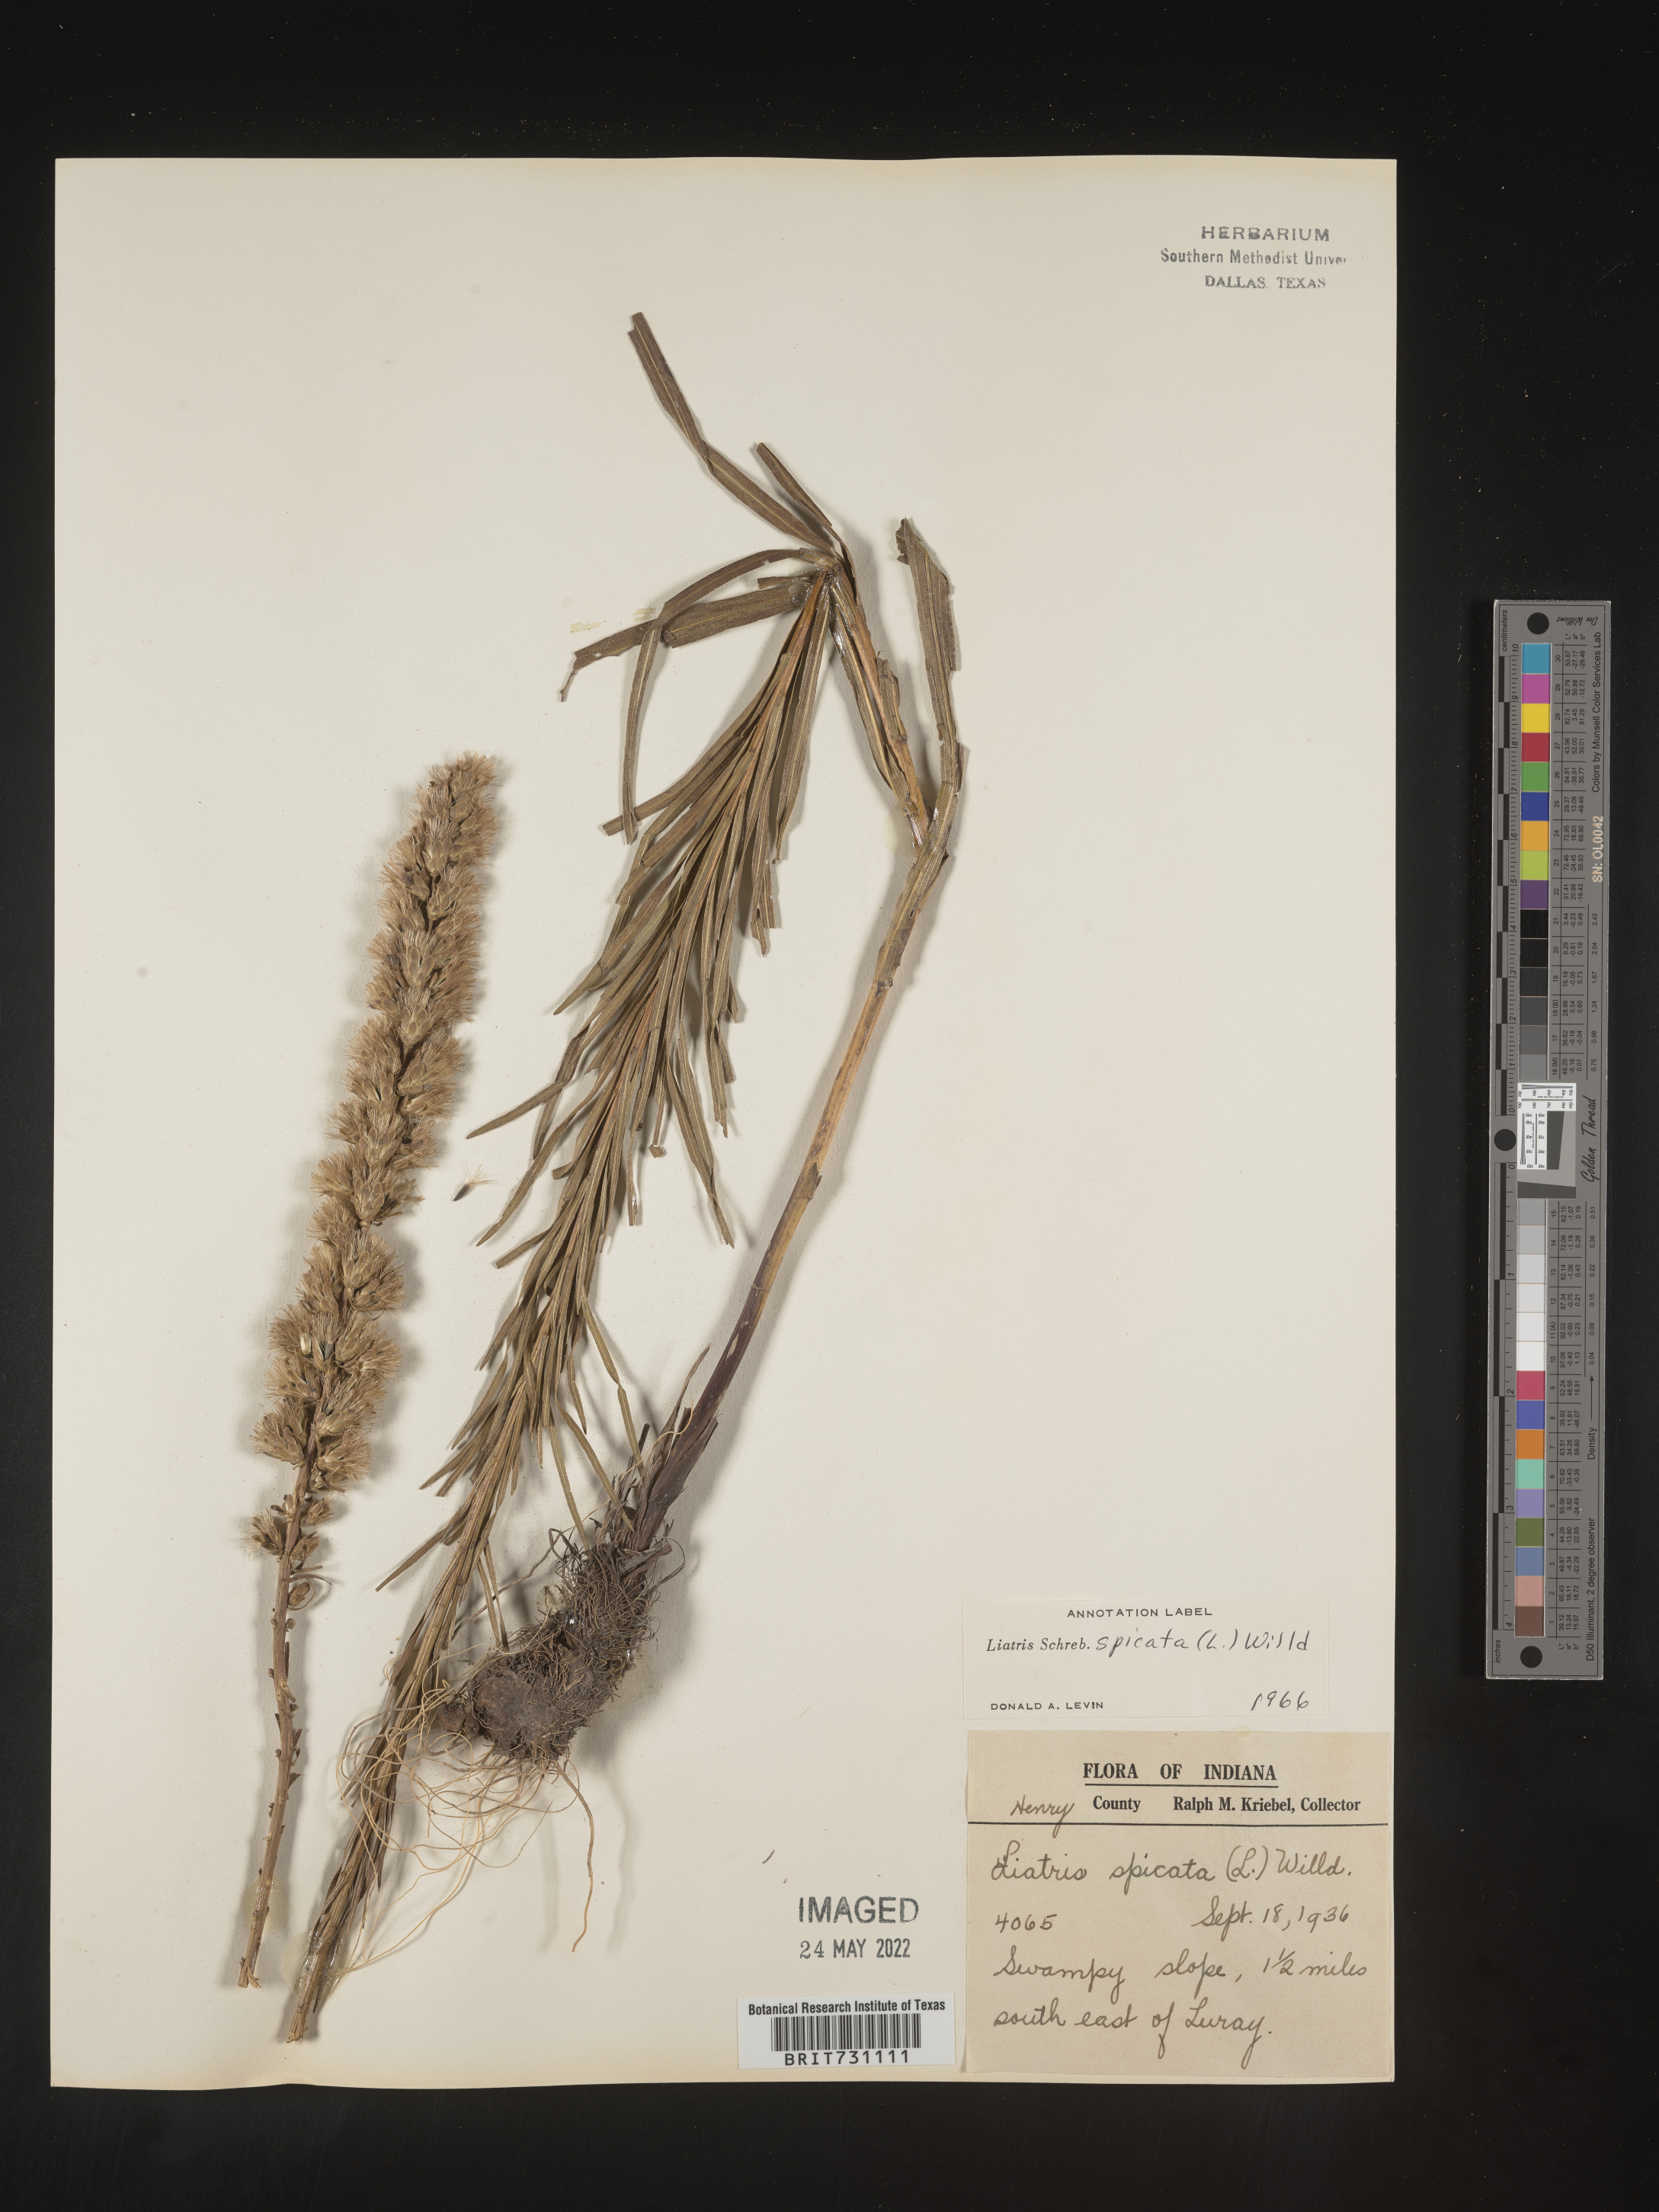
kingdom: Plantae
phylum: Tracheophyta
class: Magnoliopsida
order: Asterales
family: Asteraceae
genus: Liatris
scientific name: Liatris spicata
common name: Florist gayfeather
